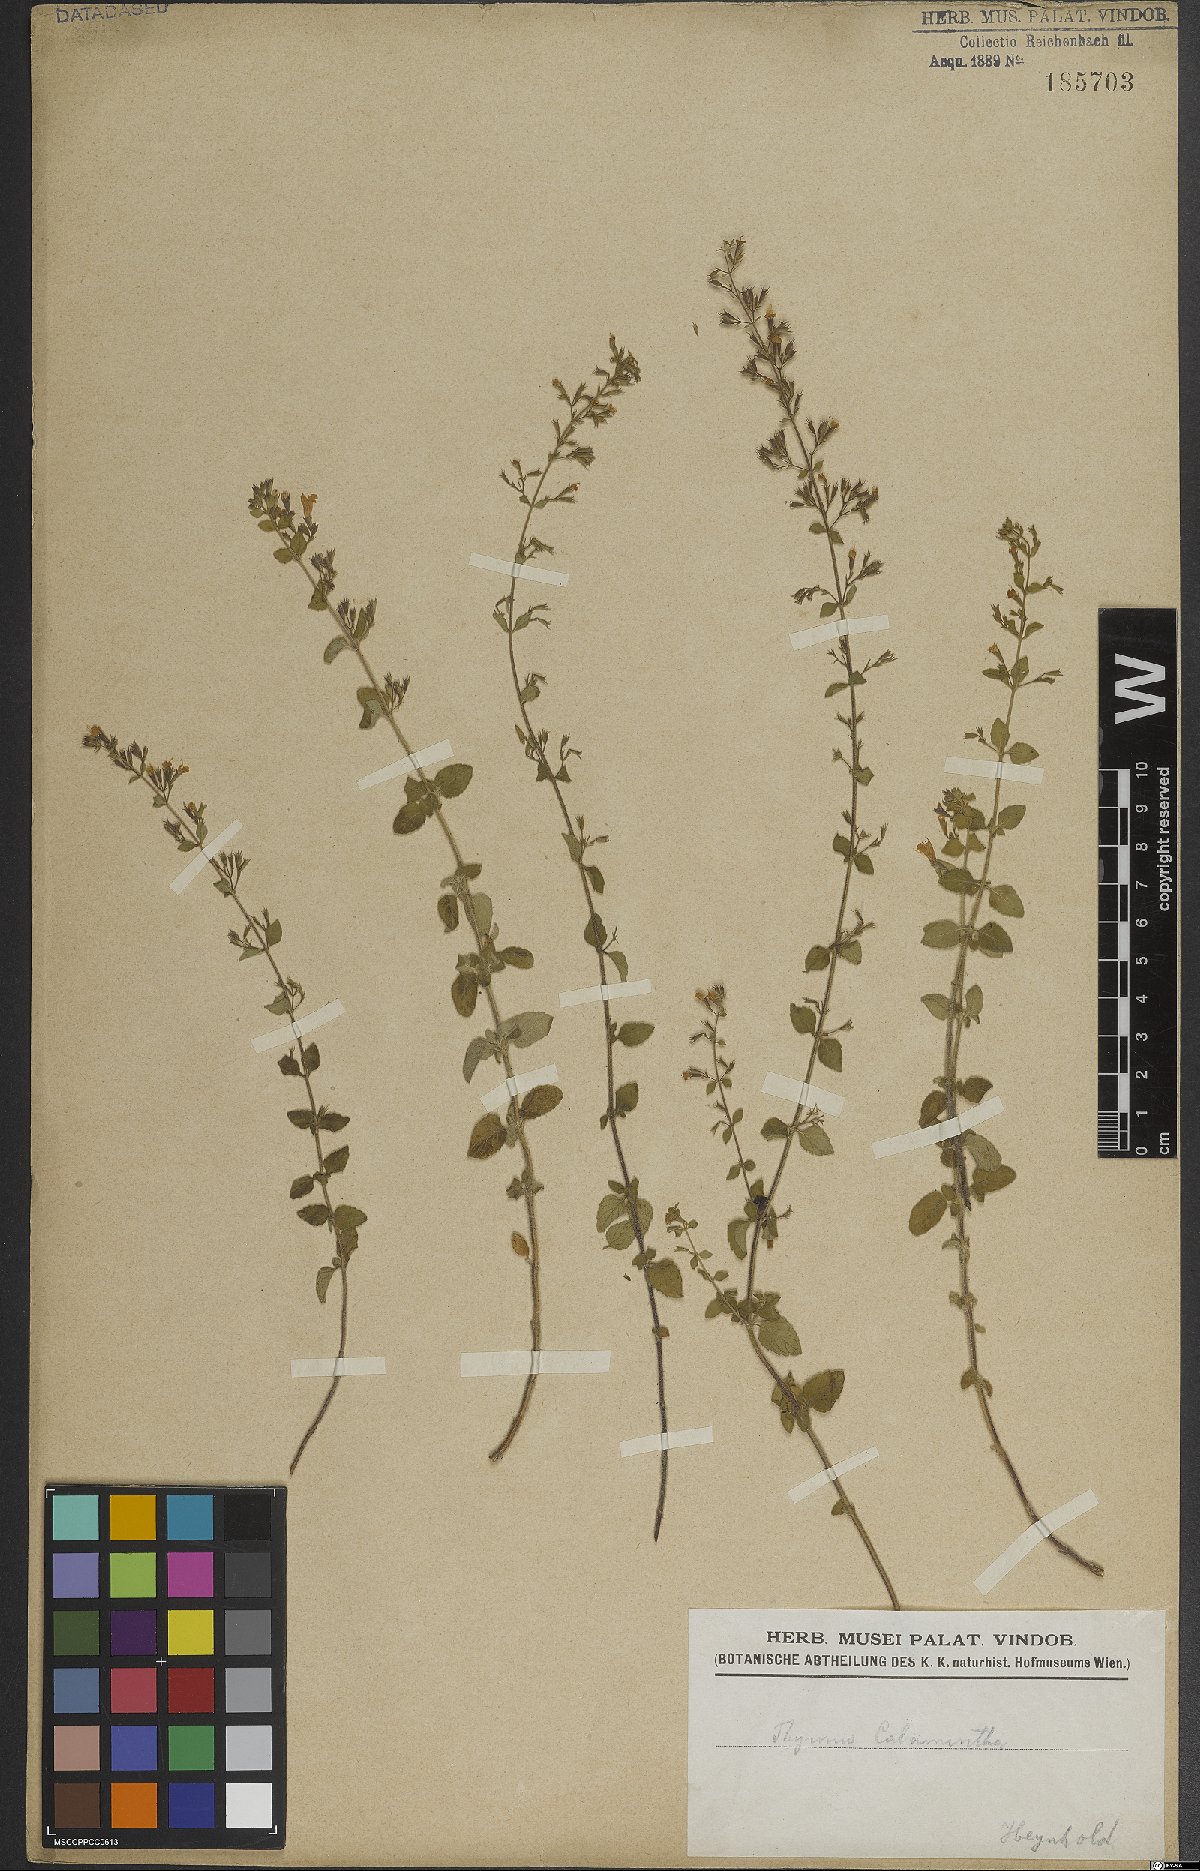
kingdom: Plantae
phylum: Tracheophyta
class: Magnoliopsida
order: Lamiales
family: Lamiaceae
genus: Clinopodium
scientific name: Clinopodium menthifolium
